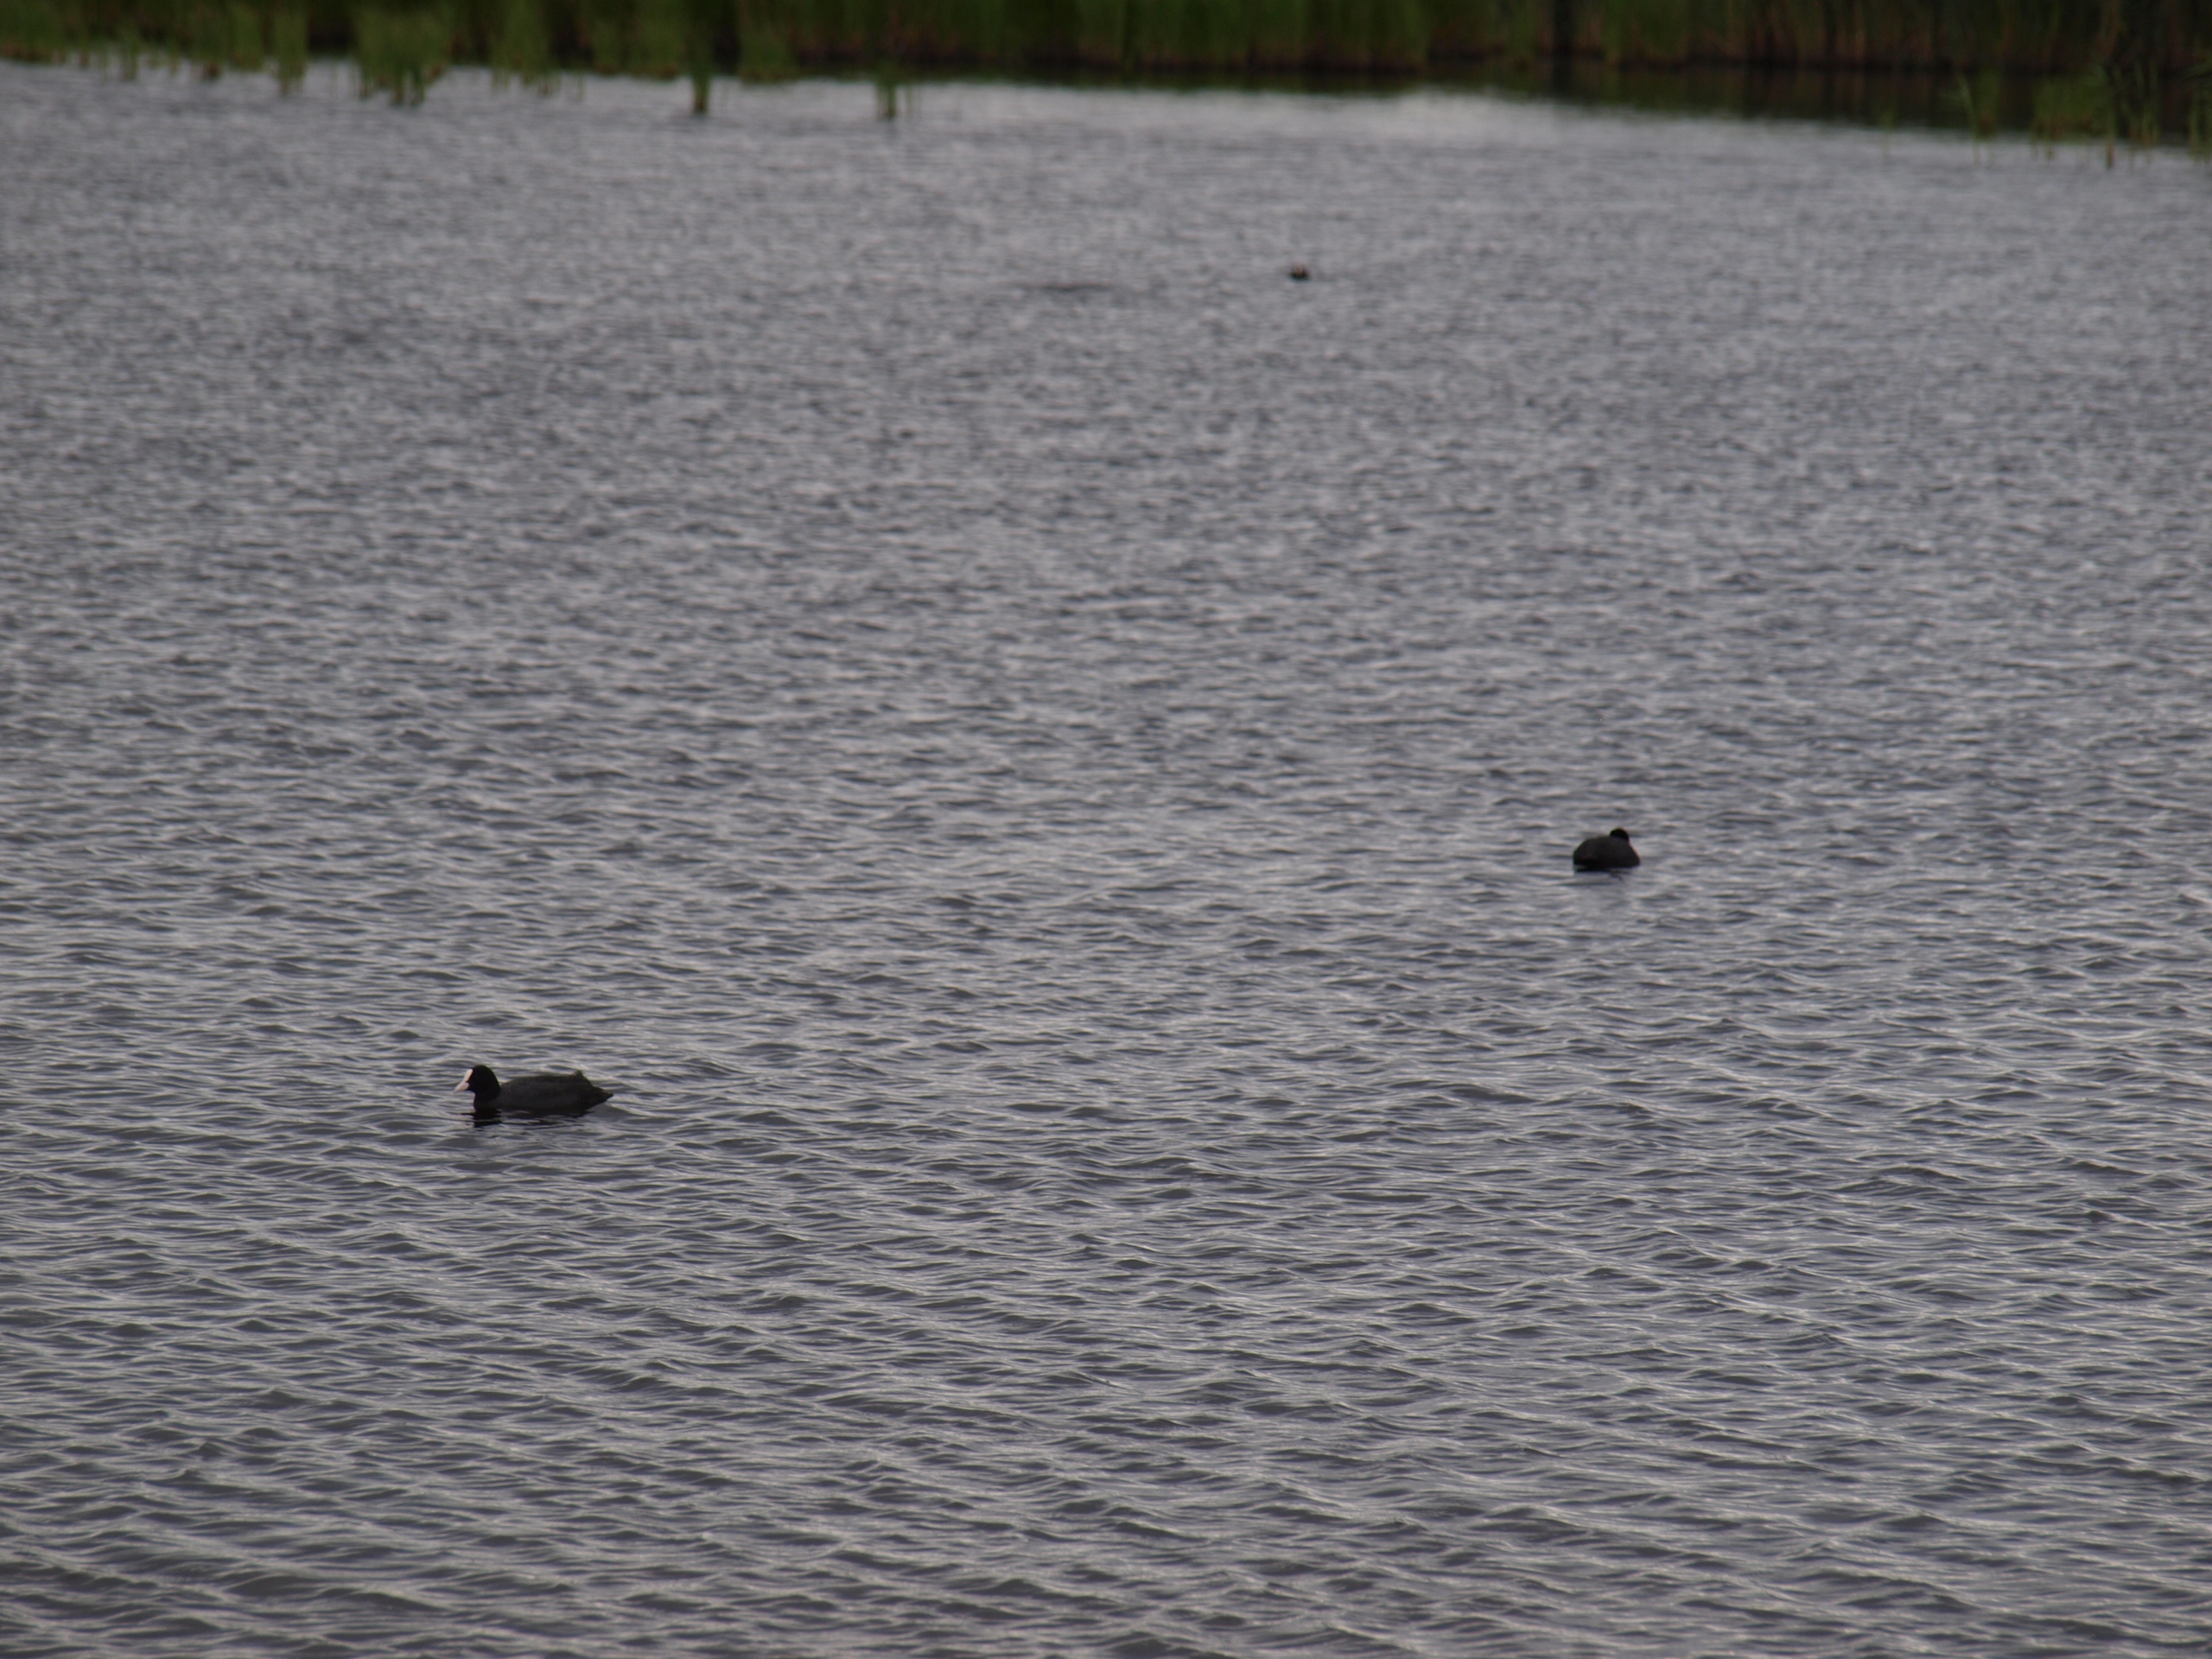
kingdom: Animalia
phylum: Chordata
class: Aves
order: Gruiformes
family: Rallidae
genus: Fulica
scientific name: Fulica atra
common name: Blishøne
